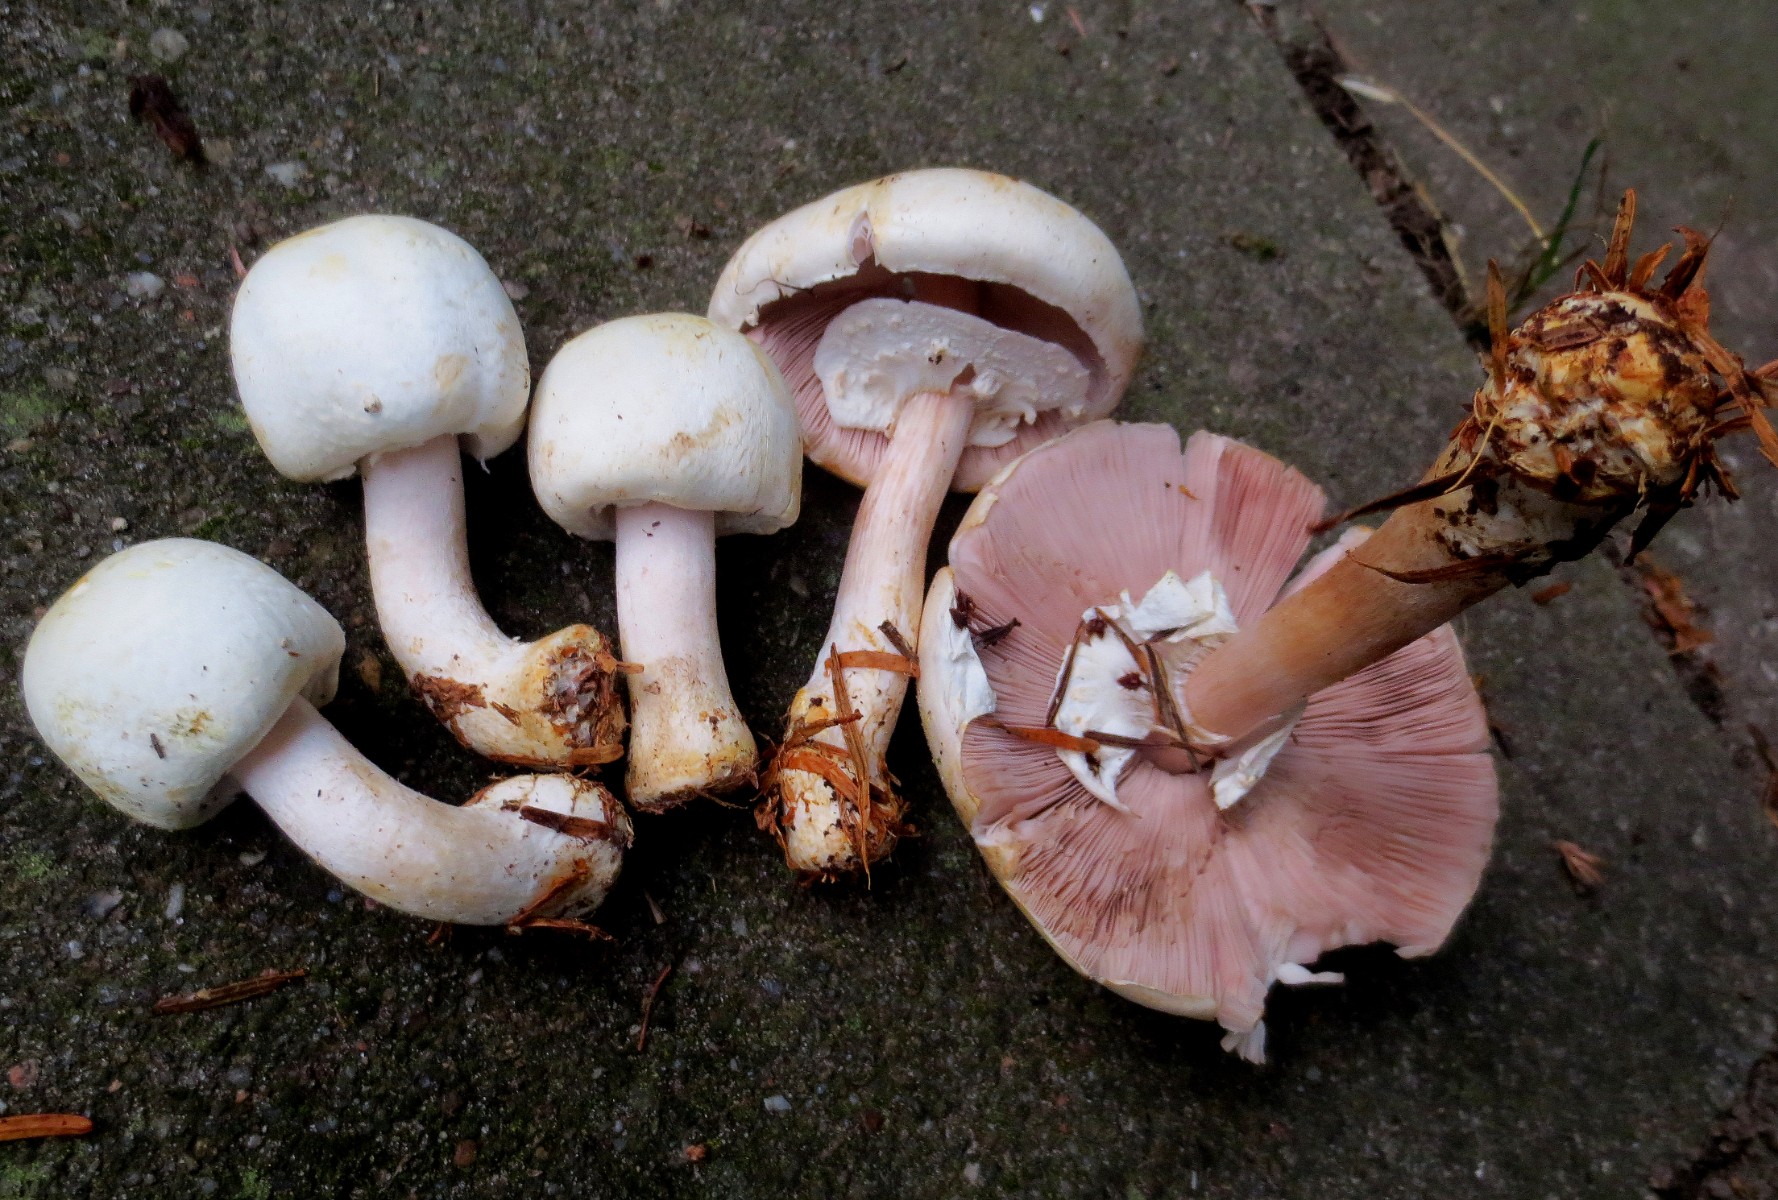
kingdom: Fungi
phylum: Basidiomycota
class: Agaricomycetes
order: Agaricales
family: Agaricaceae
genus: Agaricus
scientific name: Agaricus sylvicola
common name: skiveknoldet champignon
